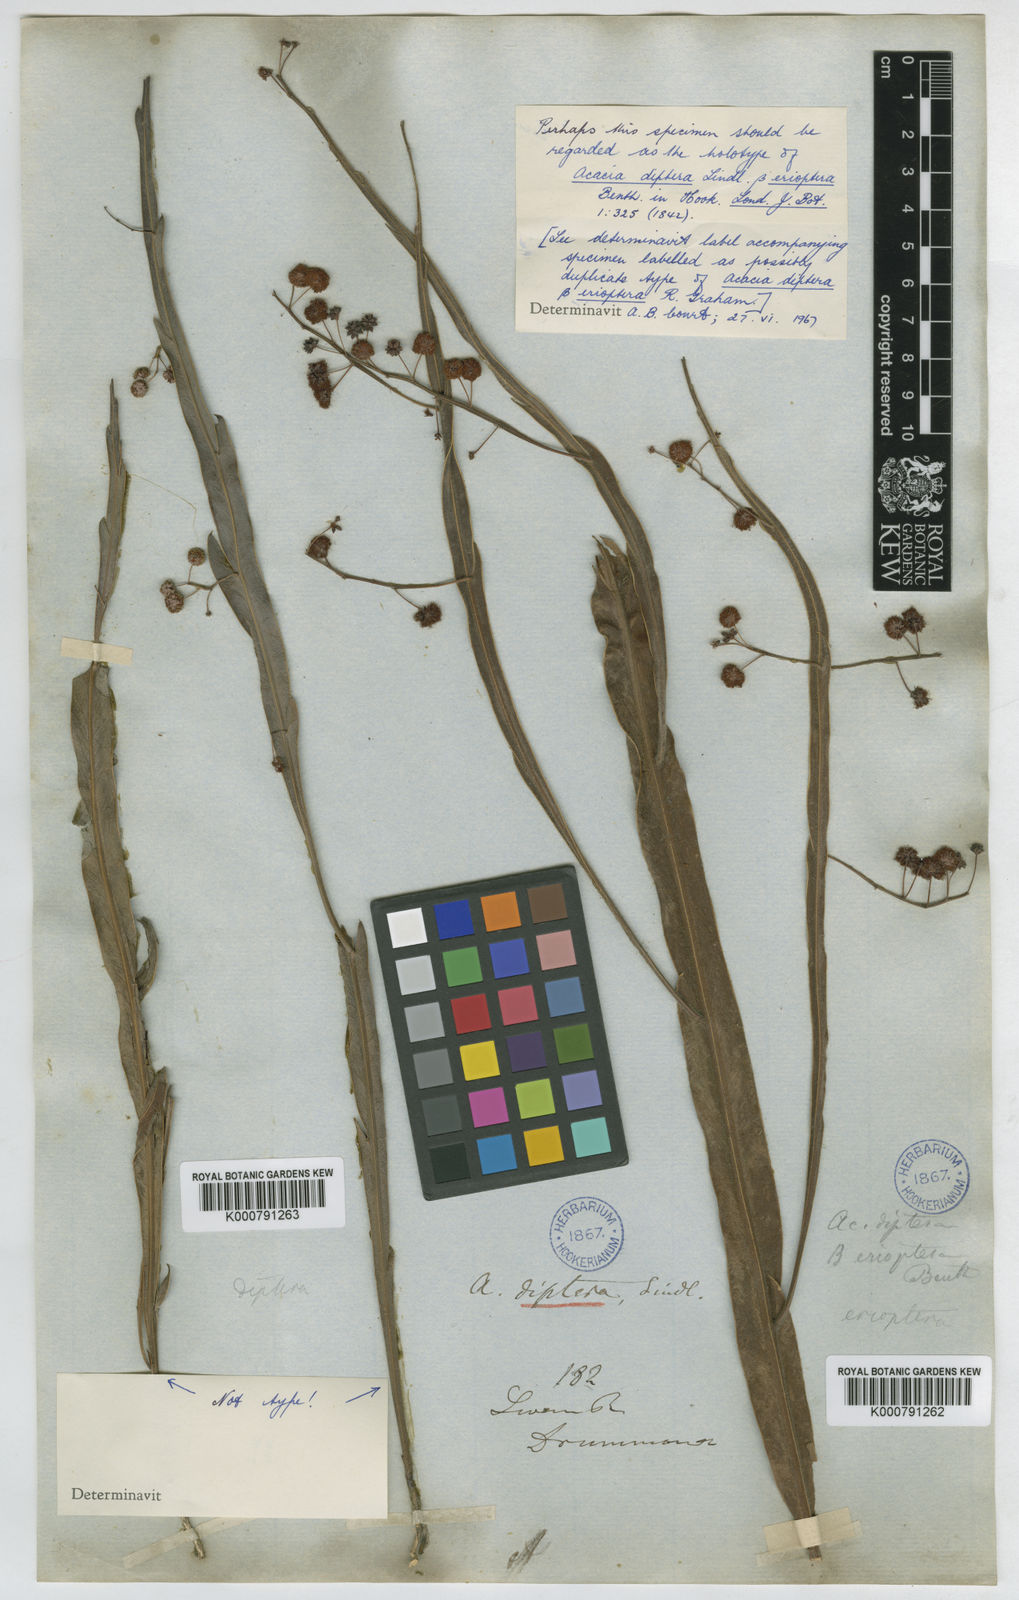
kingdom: Plantae
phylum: Tracheophyta
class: Magnoliopsida
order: Fabales
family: Fabaceae
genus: Acacia
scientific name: Acacia
